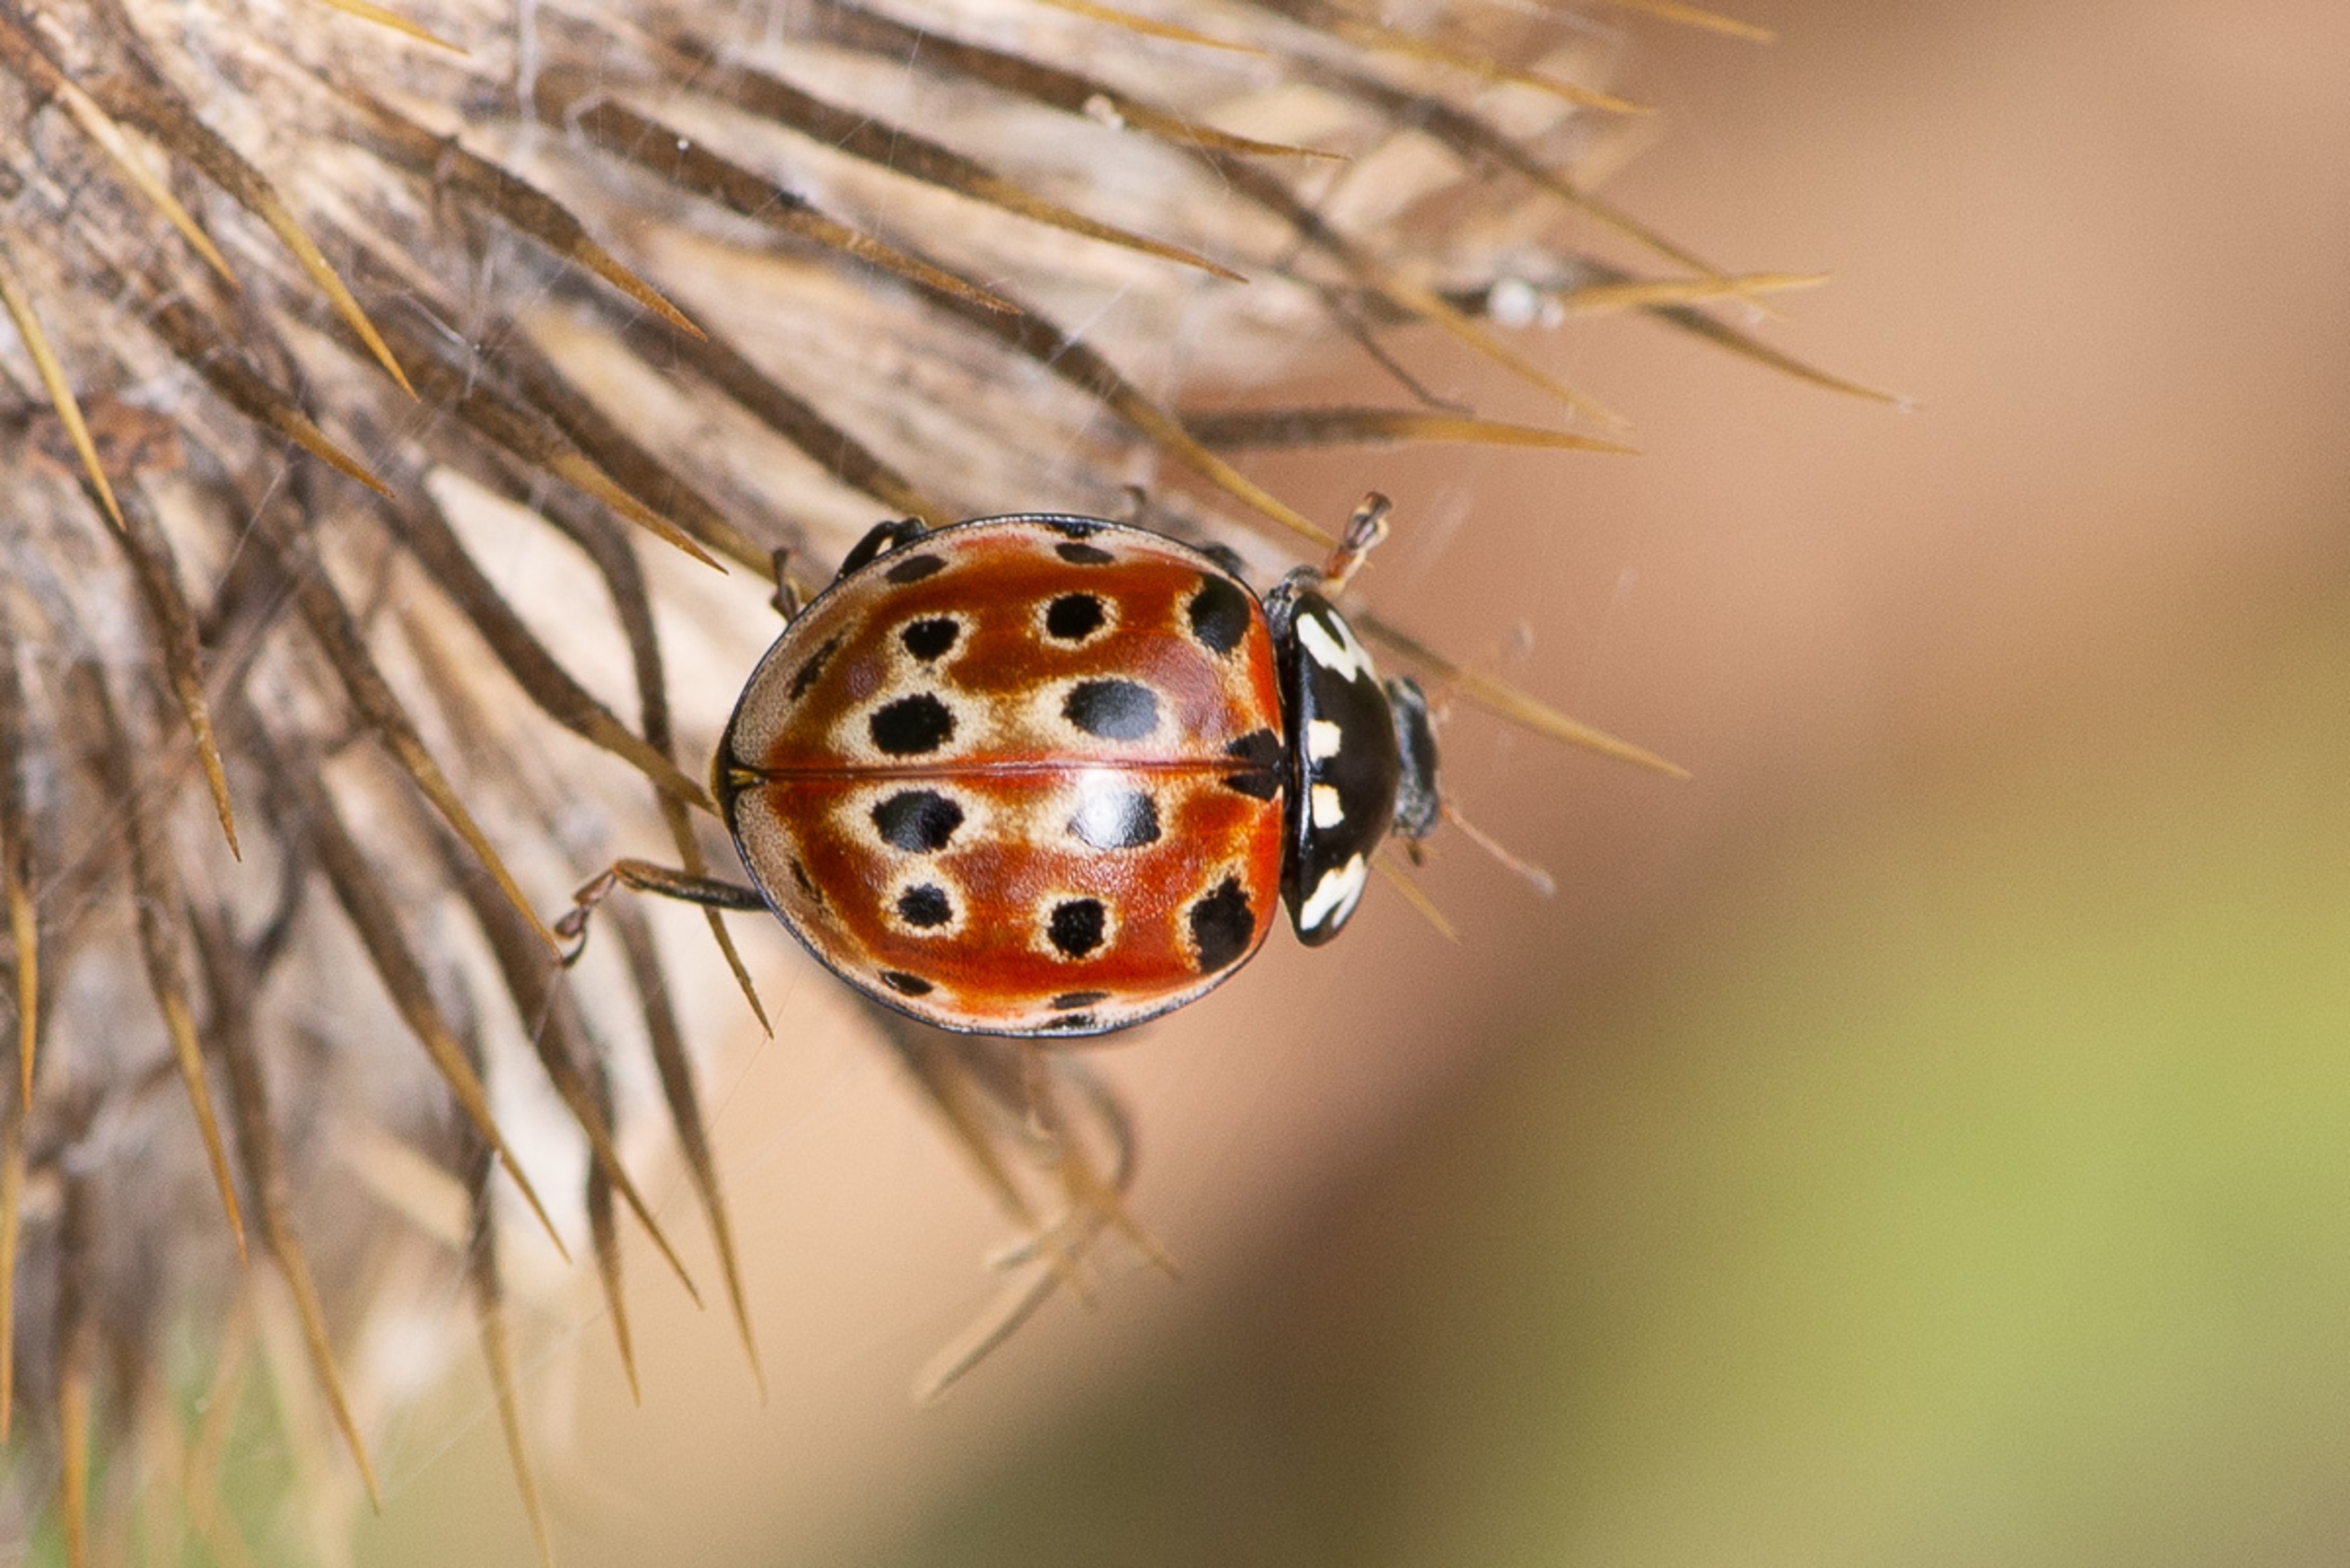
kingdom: Animalia
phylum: Arthropoda
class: Insecta
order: Coleoptera
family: Coccinellidae
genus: Anatis
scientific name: Anatis ocellata
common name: Øjeplettet mariehøne
